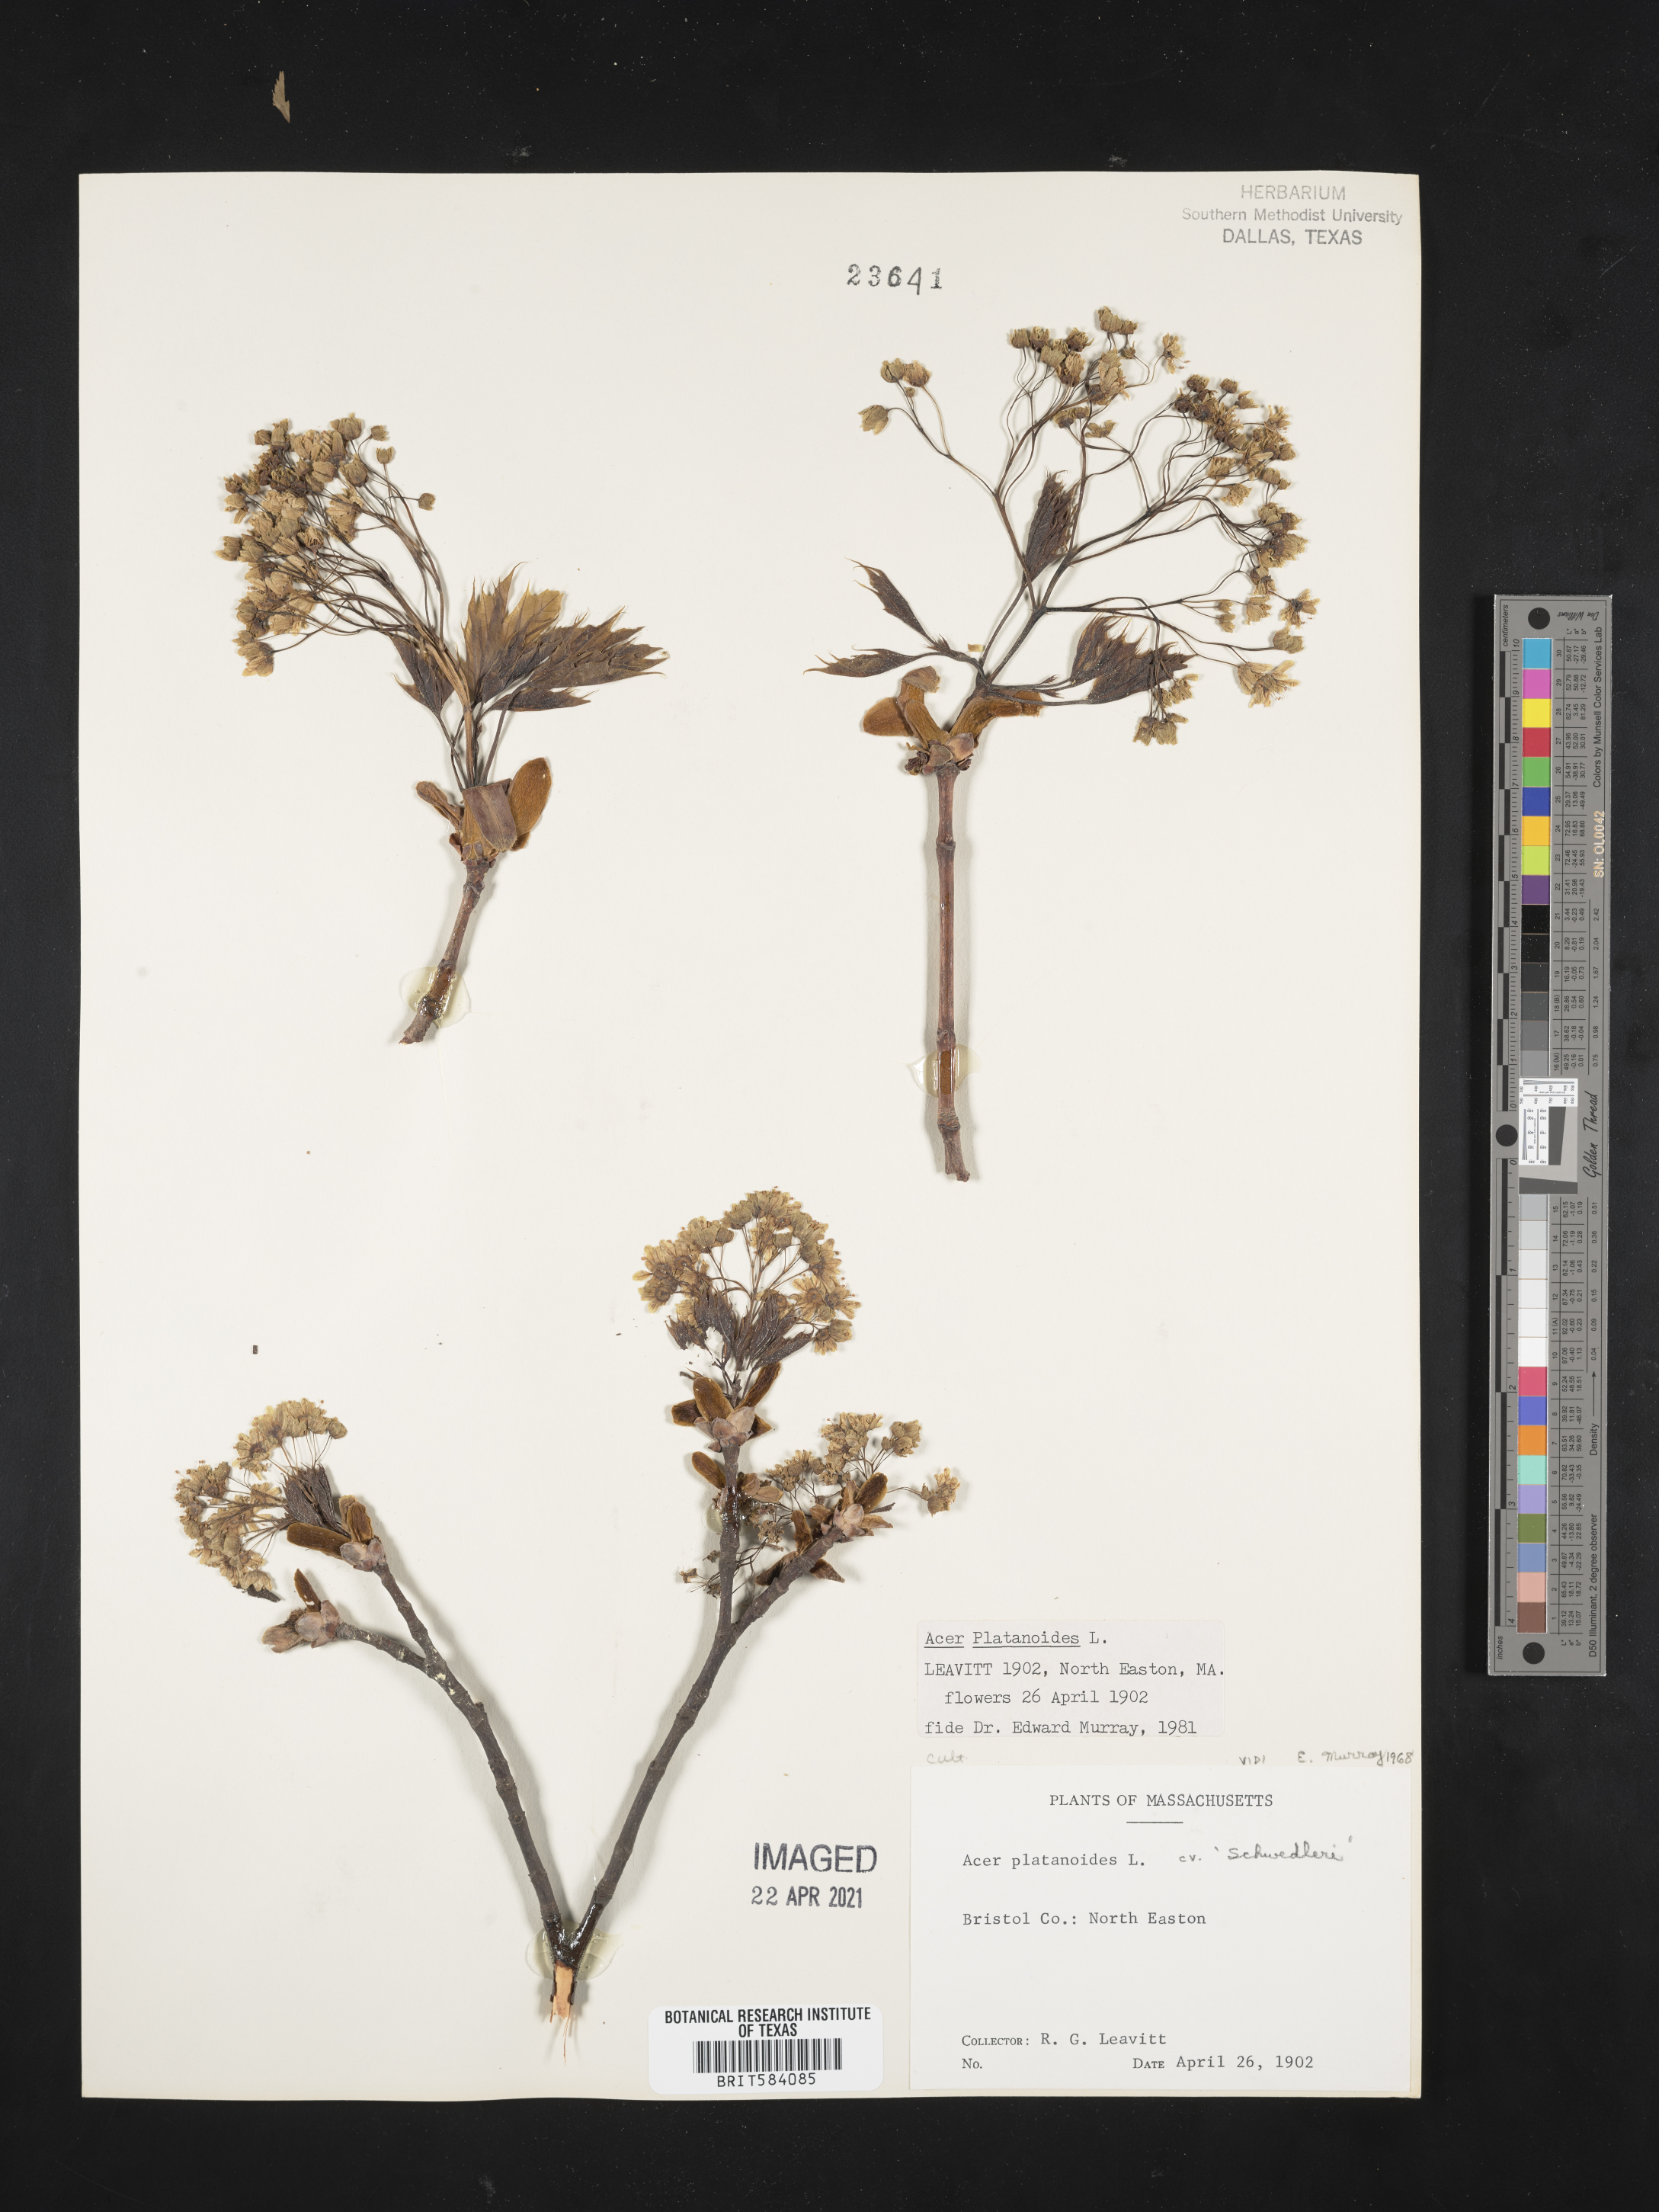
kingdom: Plantae
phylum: Tracheophyta
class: Magnoliopsida
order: Sapindales
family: Sapindaceae
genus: Acer
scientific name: Acer platanoides
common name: Norway maple
